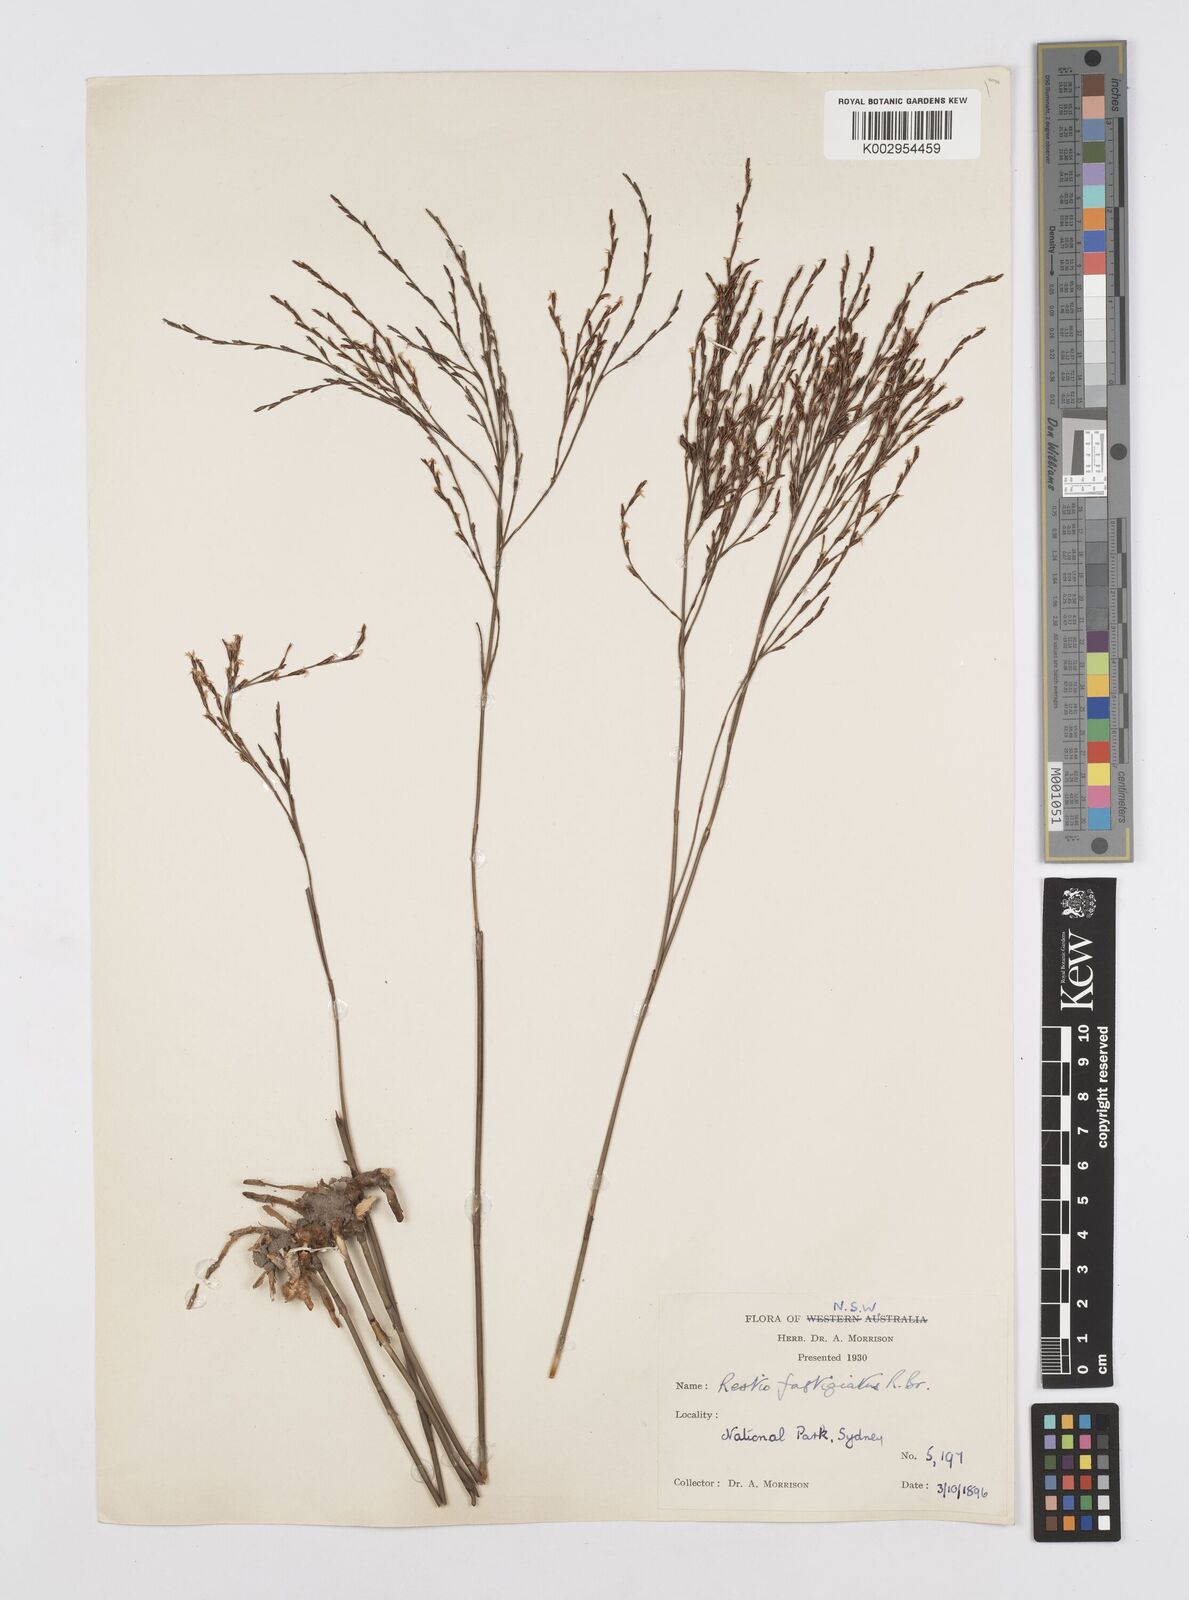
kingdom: Plantae
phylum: Tracheophyta
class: Liliopsida
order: Poales
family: Restionaceae
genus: Chordifex
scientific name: Chordifex fastigiatus
